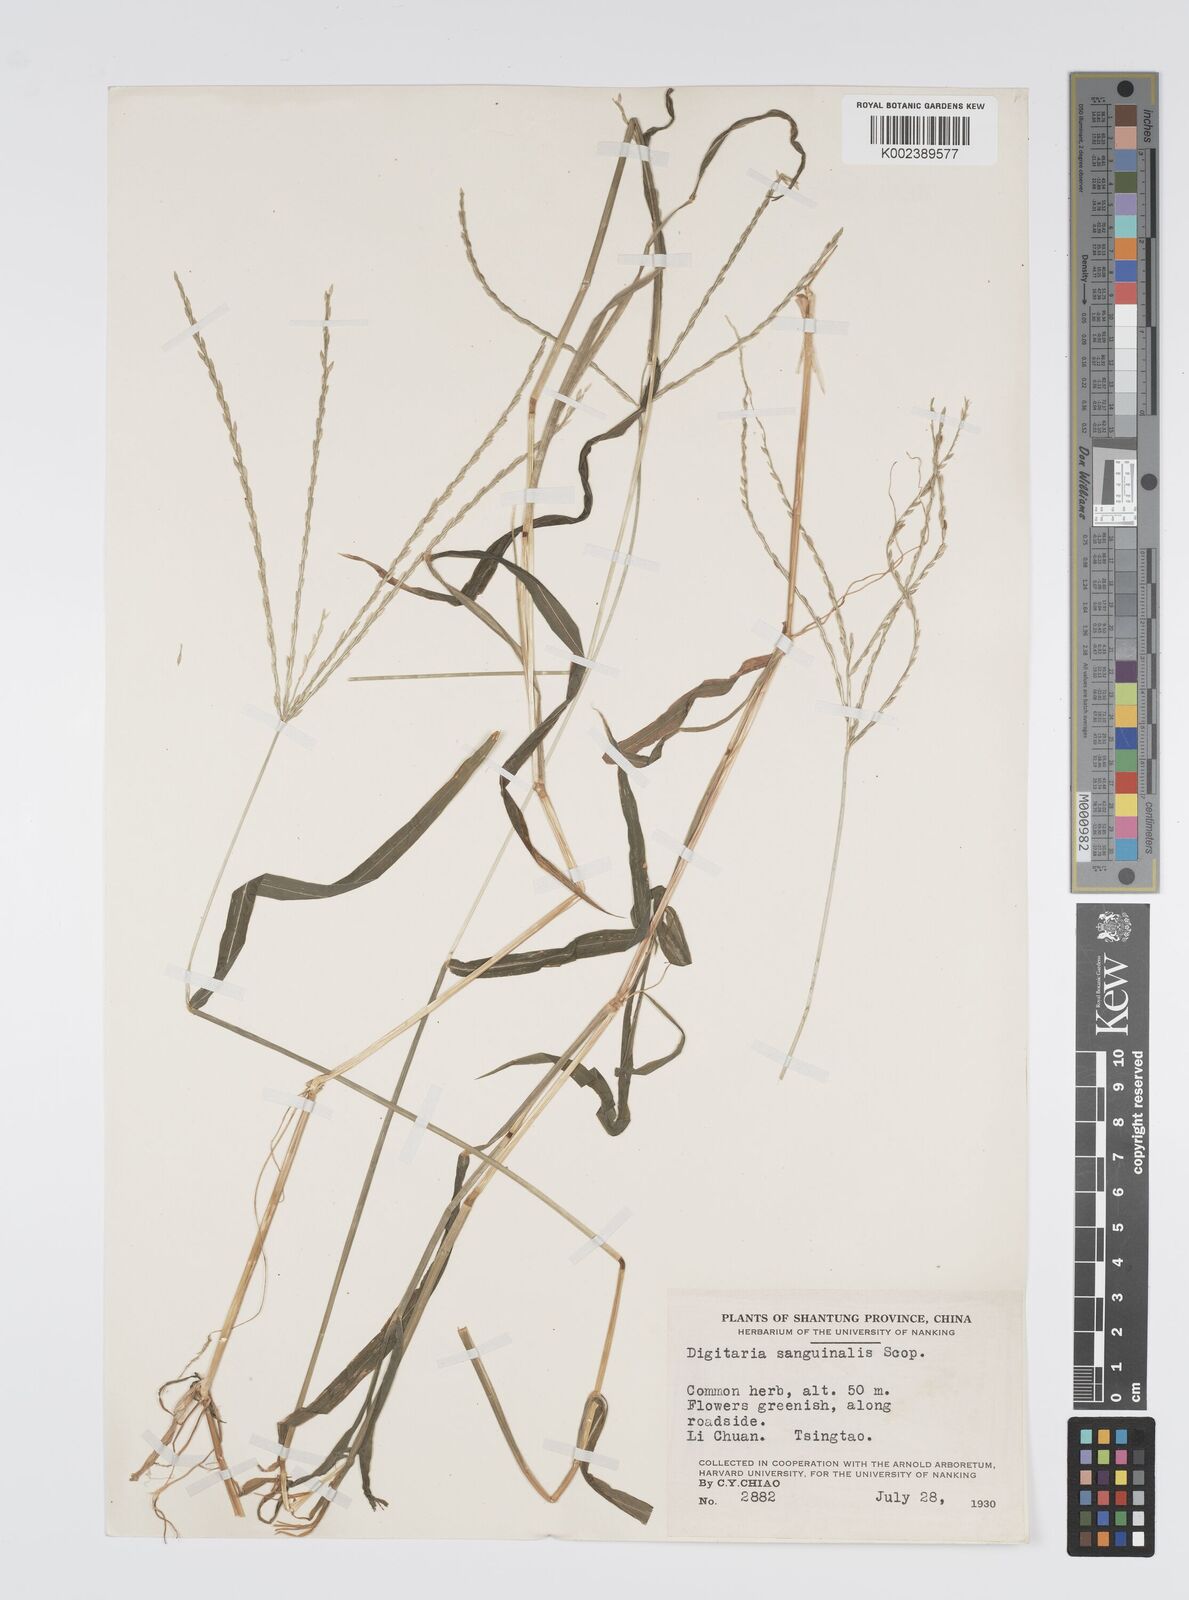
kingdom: Plantae
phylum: Tracheophyta
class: Liliopsida
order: Poales
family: Poaceae
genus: Digitaria
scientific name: Digitaria ciliaris
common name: Tropical finger-grass
